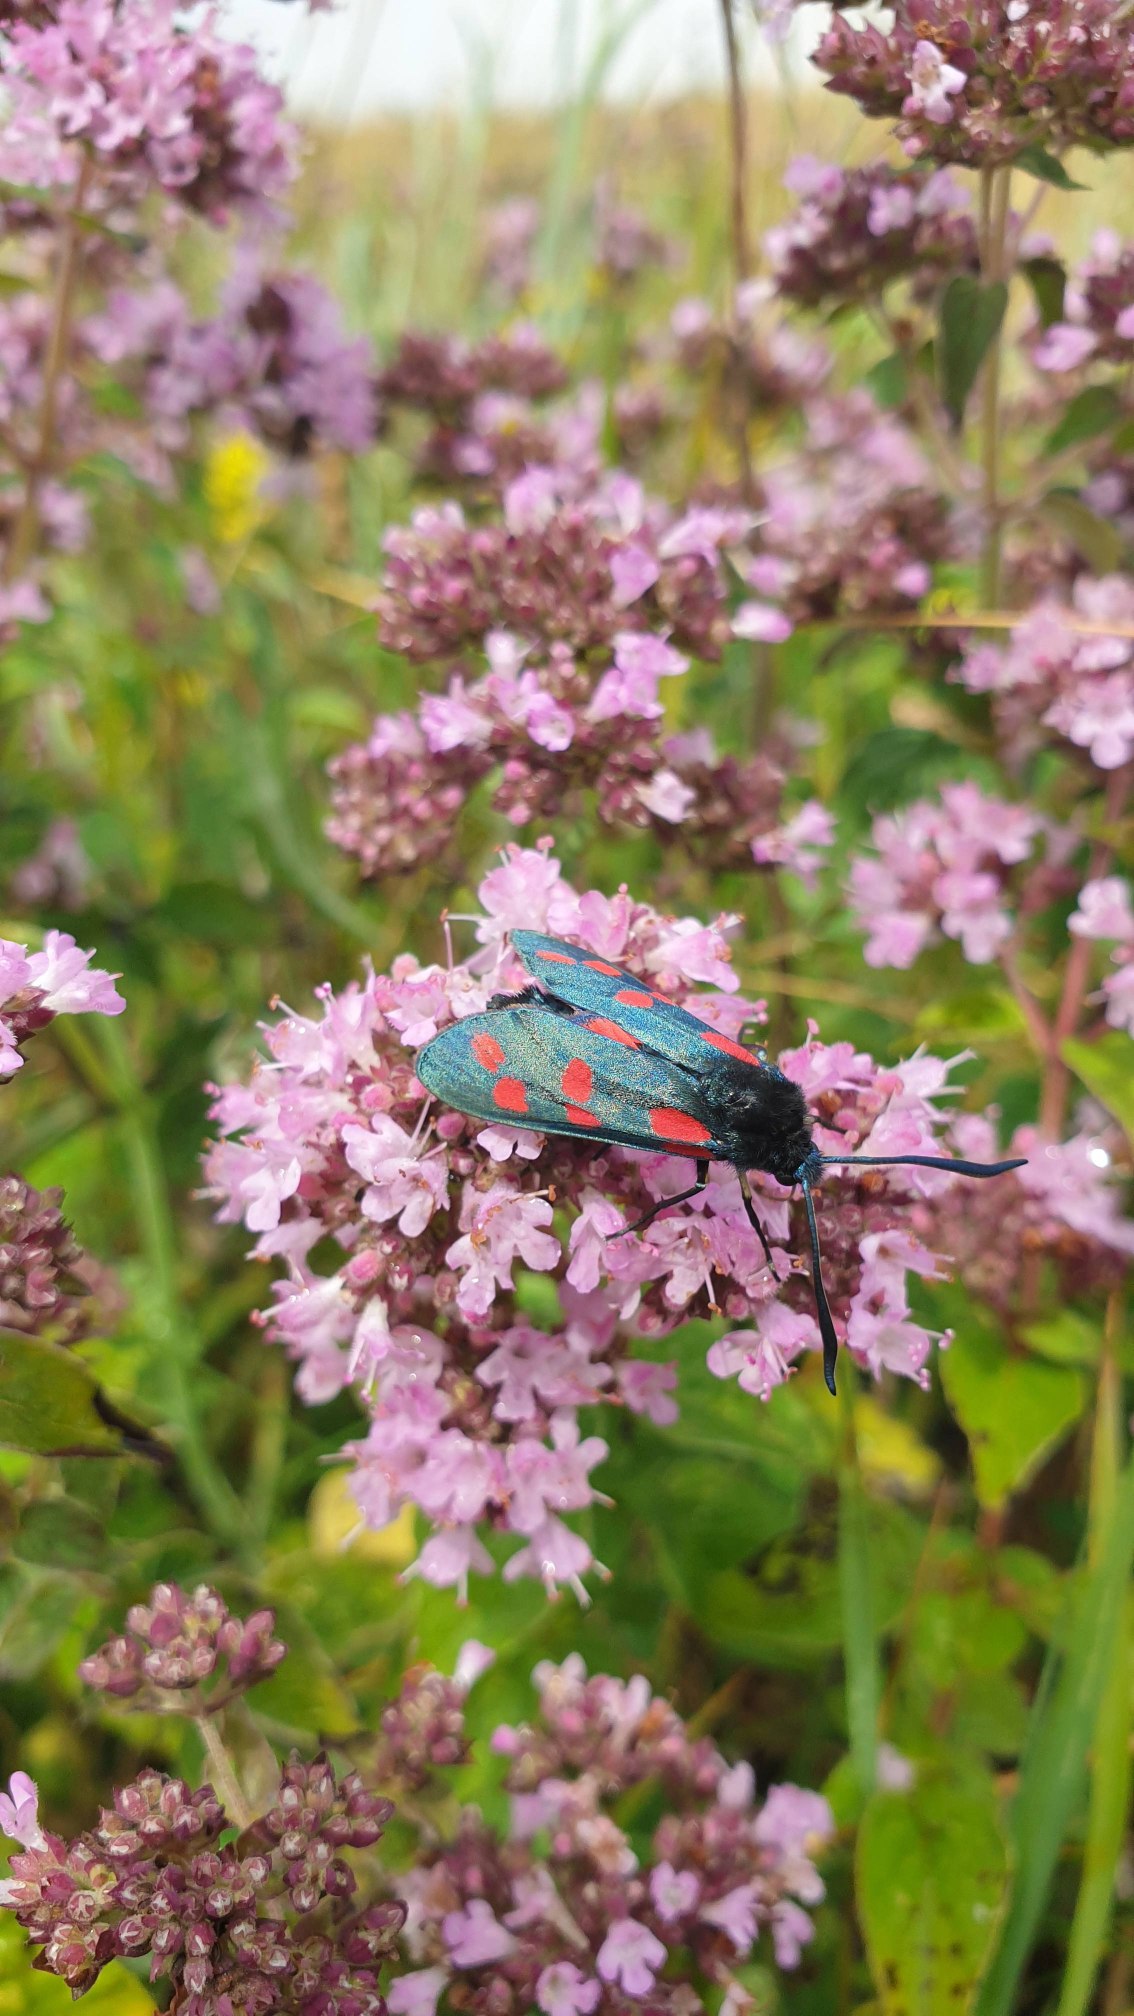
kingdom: Animalia
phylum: Arthropoda
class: Insecta
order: Lepidoptera
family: Zygaenidae
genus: Zygaena
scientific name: Zygaena filipendulae
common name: Seksplettet køllesværmer
